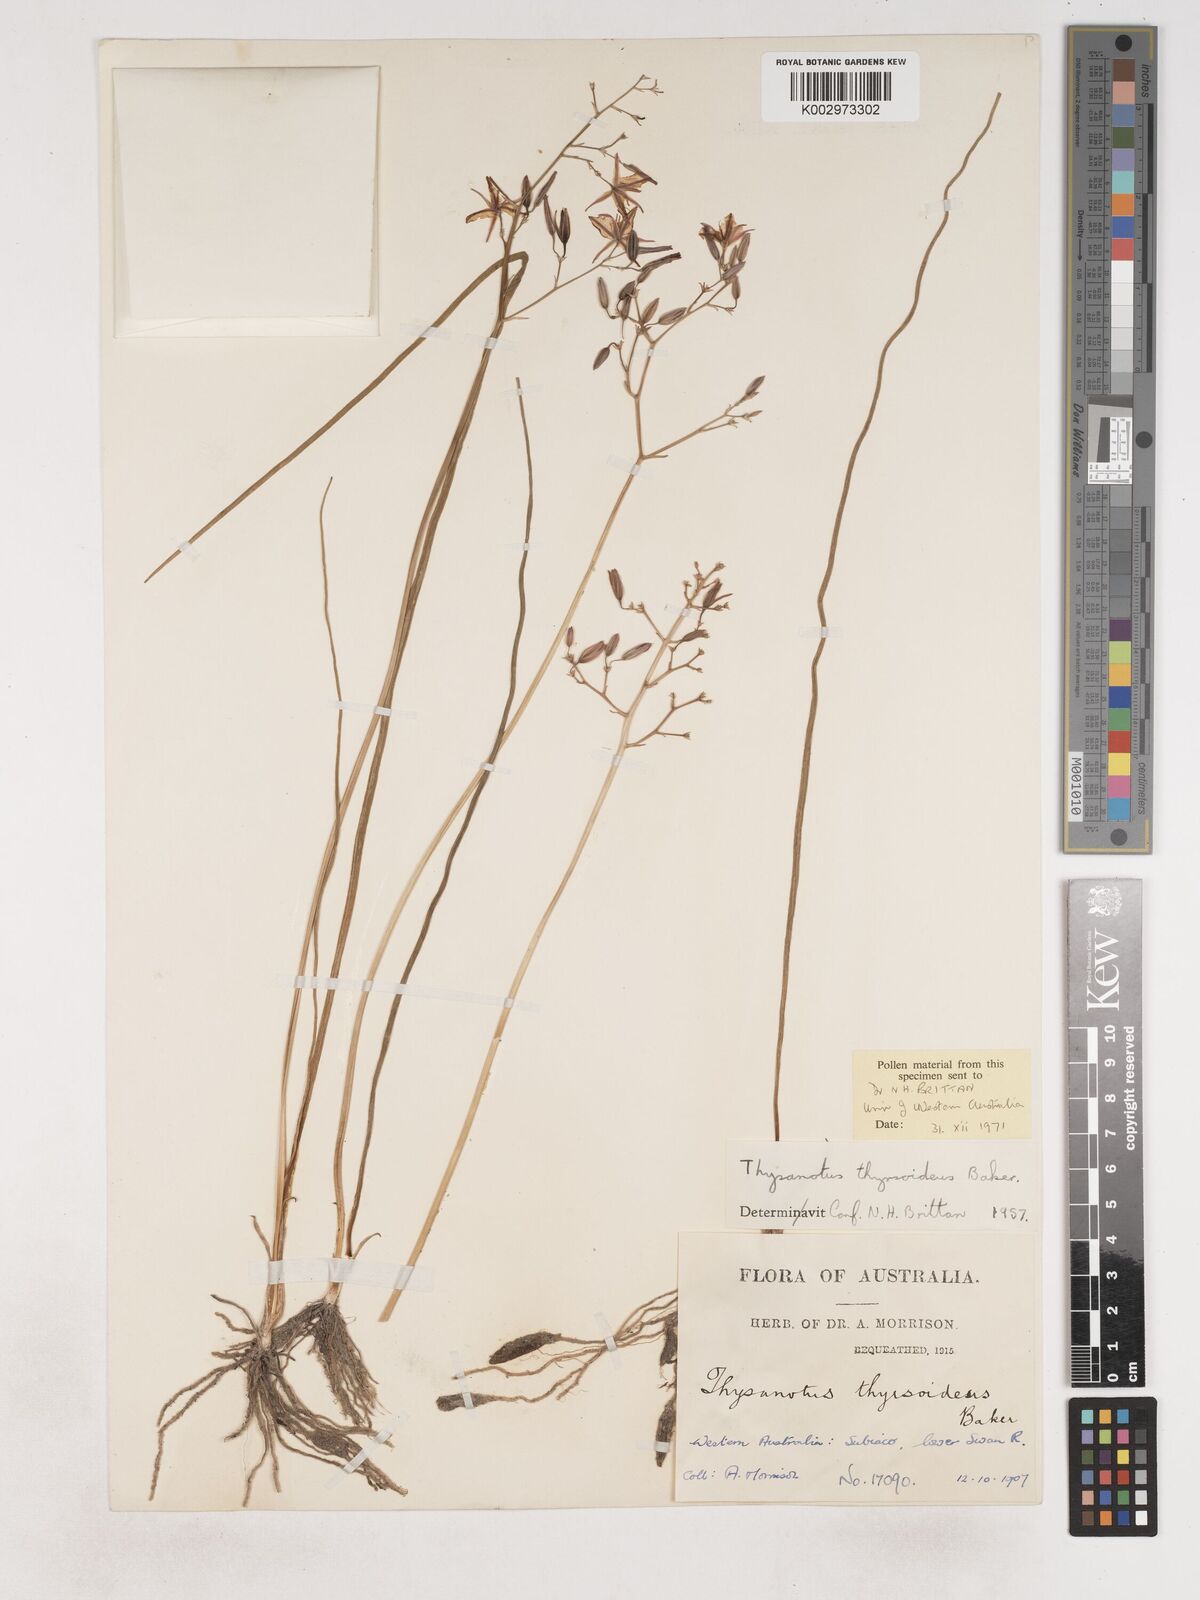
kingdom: Plantae
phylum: Tracheophyta
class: Liliopsida
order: Asparagales
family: Asparagaceae
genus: Thysanotus
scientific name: Thysanotus thyrsoideus
